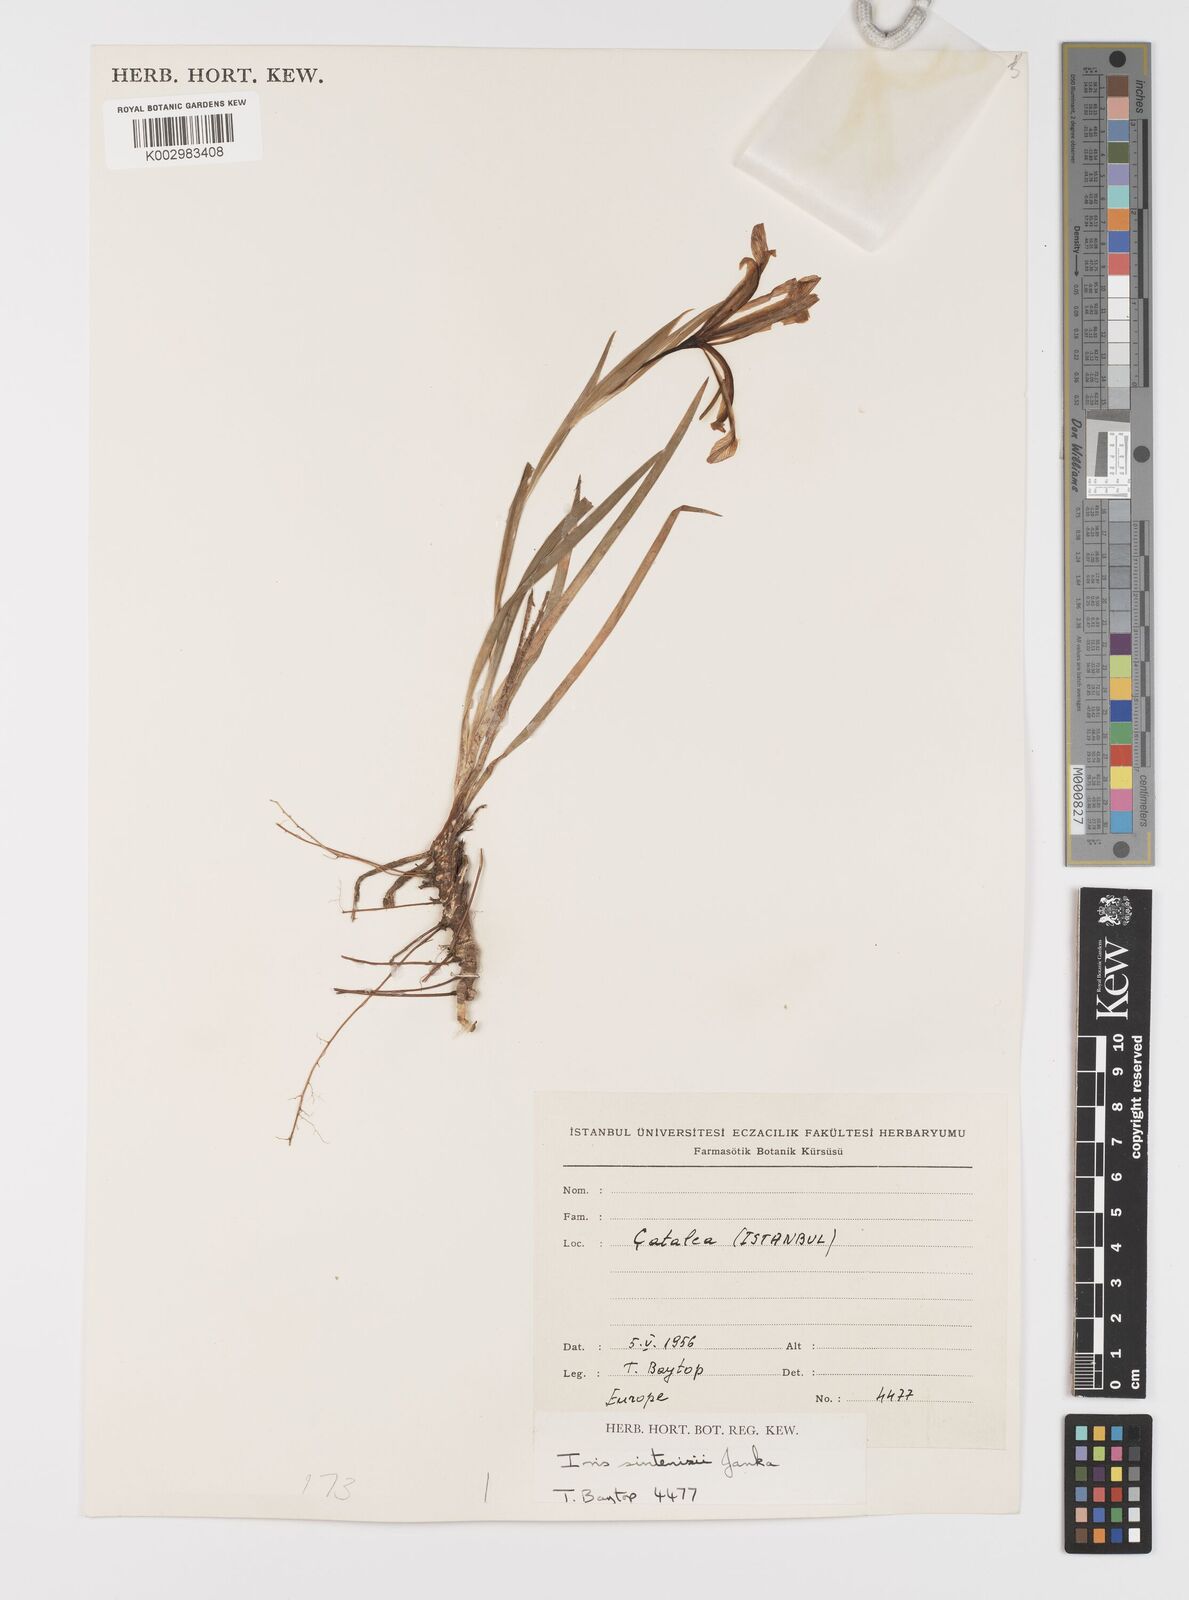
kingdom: Plantae
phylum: Tracheophyta
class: Liliopsida
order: Asparagales
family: Iridaceae
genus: Iris
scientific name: Iris sintenisii
